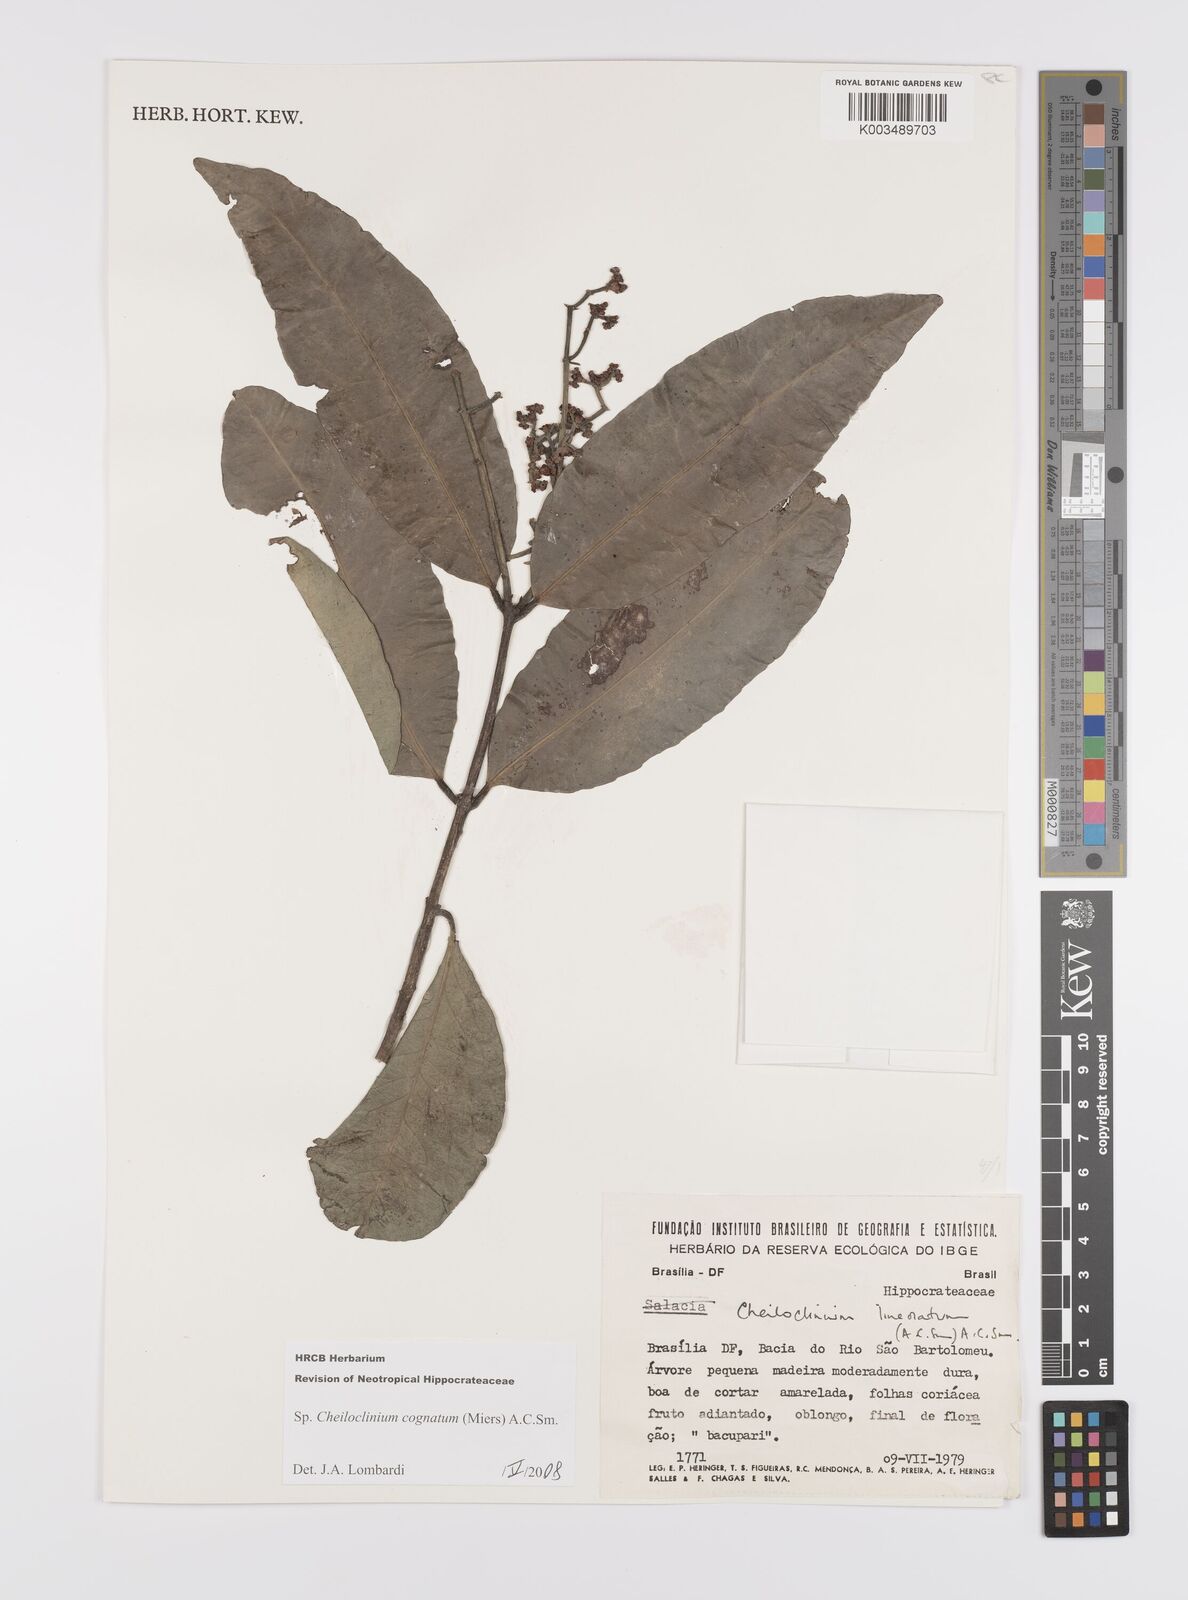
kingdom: Plantae
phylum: Tracheophyta
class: Magnoliopsida
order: Celastrales
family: Celastraceae
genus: Cheiloclinium
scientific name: Cheiloclinium cognatum
